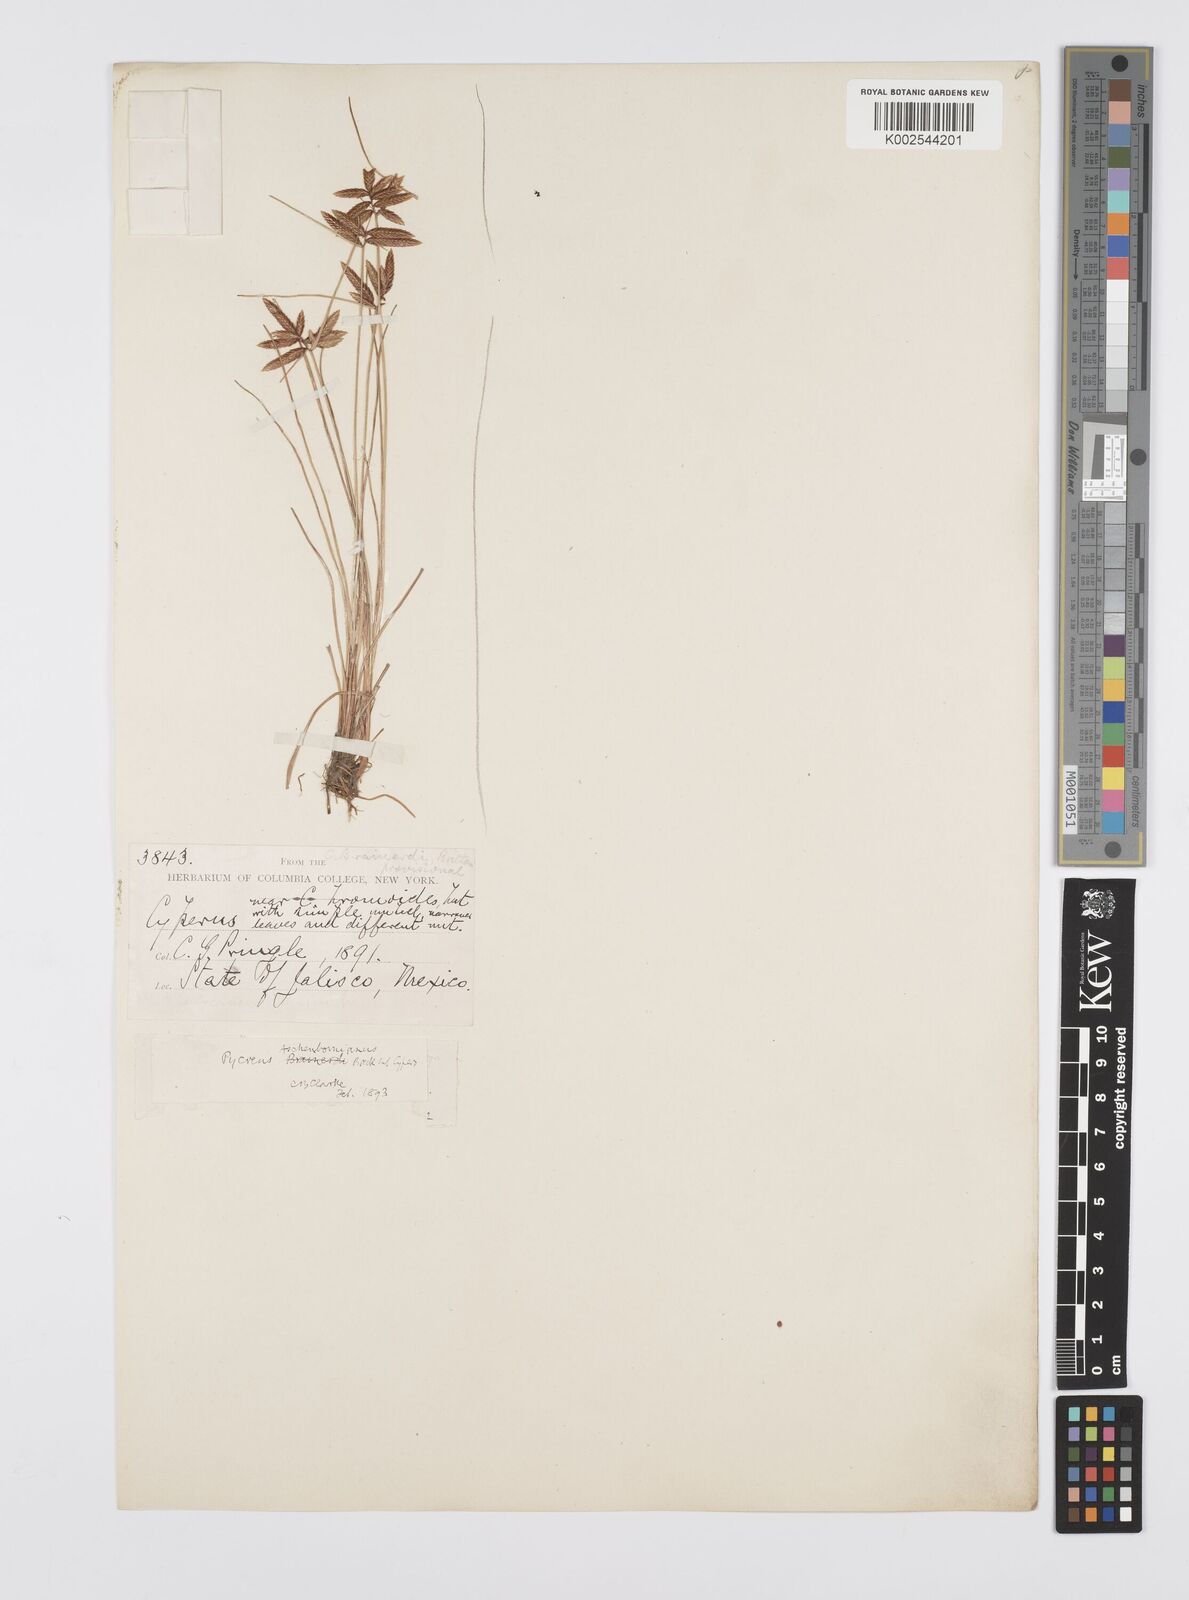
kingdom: Plantae
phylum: Tracheophyta
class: Liliopsida
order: Poales
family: Cyperaceae
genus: Cyperus
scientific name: Cyperus aschenbornianus
